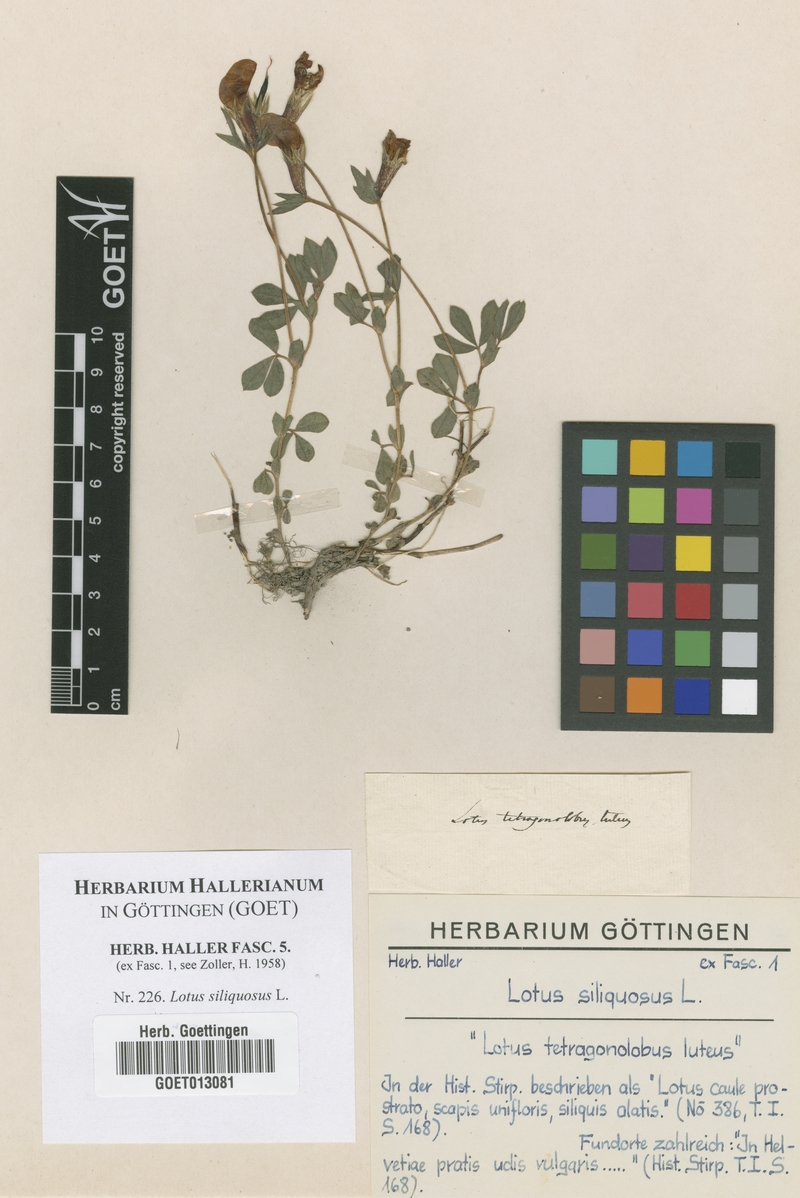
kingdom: Plantae
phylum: Tracheophyta
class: Magnoliopsida
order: Fabales
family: Fabaceae
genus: Lathyrus
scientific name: Lathyrus inconspicuus
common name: Inconspicuous pea
